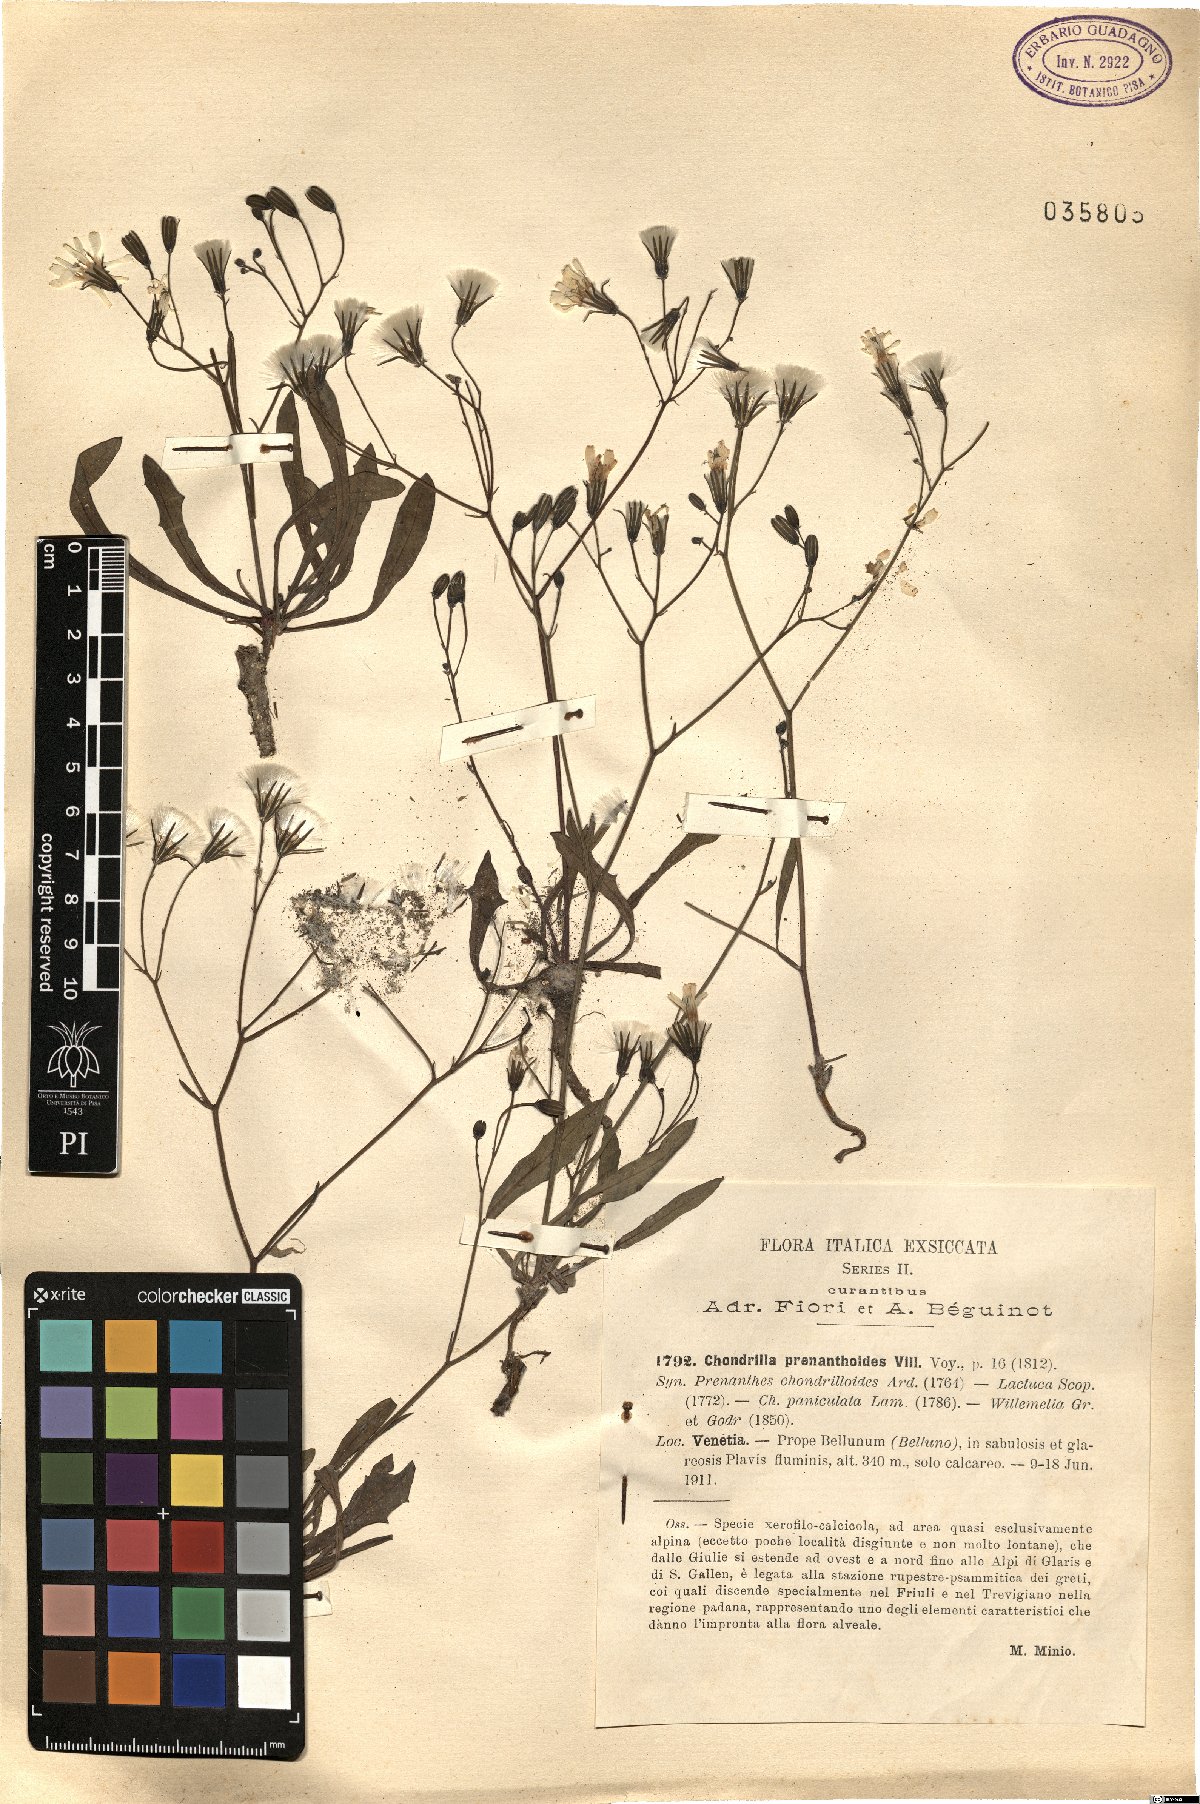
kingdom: Plantae
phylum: Tracheophyta
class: Magnoliopsida
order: Asterales
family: Asteraceae
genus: Chondrilla
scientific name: Chondrilla chondrilloides
